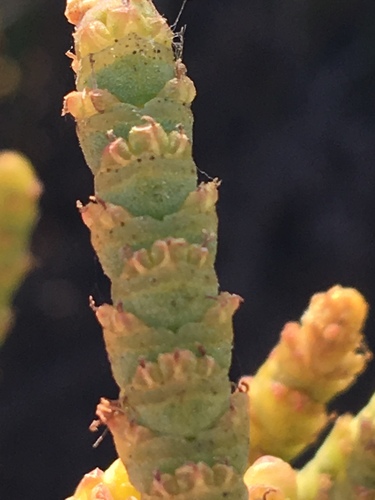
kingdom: Plantae
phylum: Tracheophyta
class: Magnoliopsida
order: Caryophyllales
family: Amaranthaceae
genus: Arthrocaulon
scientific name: Arthrocaulon macrostachyum
